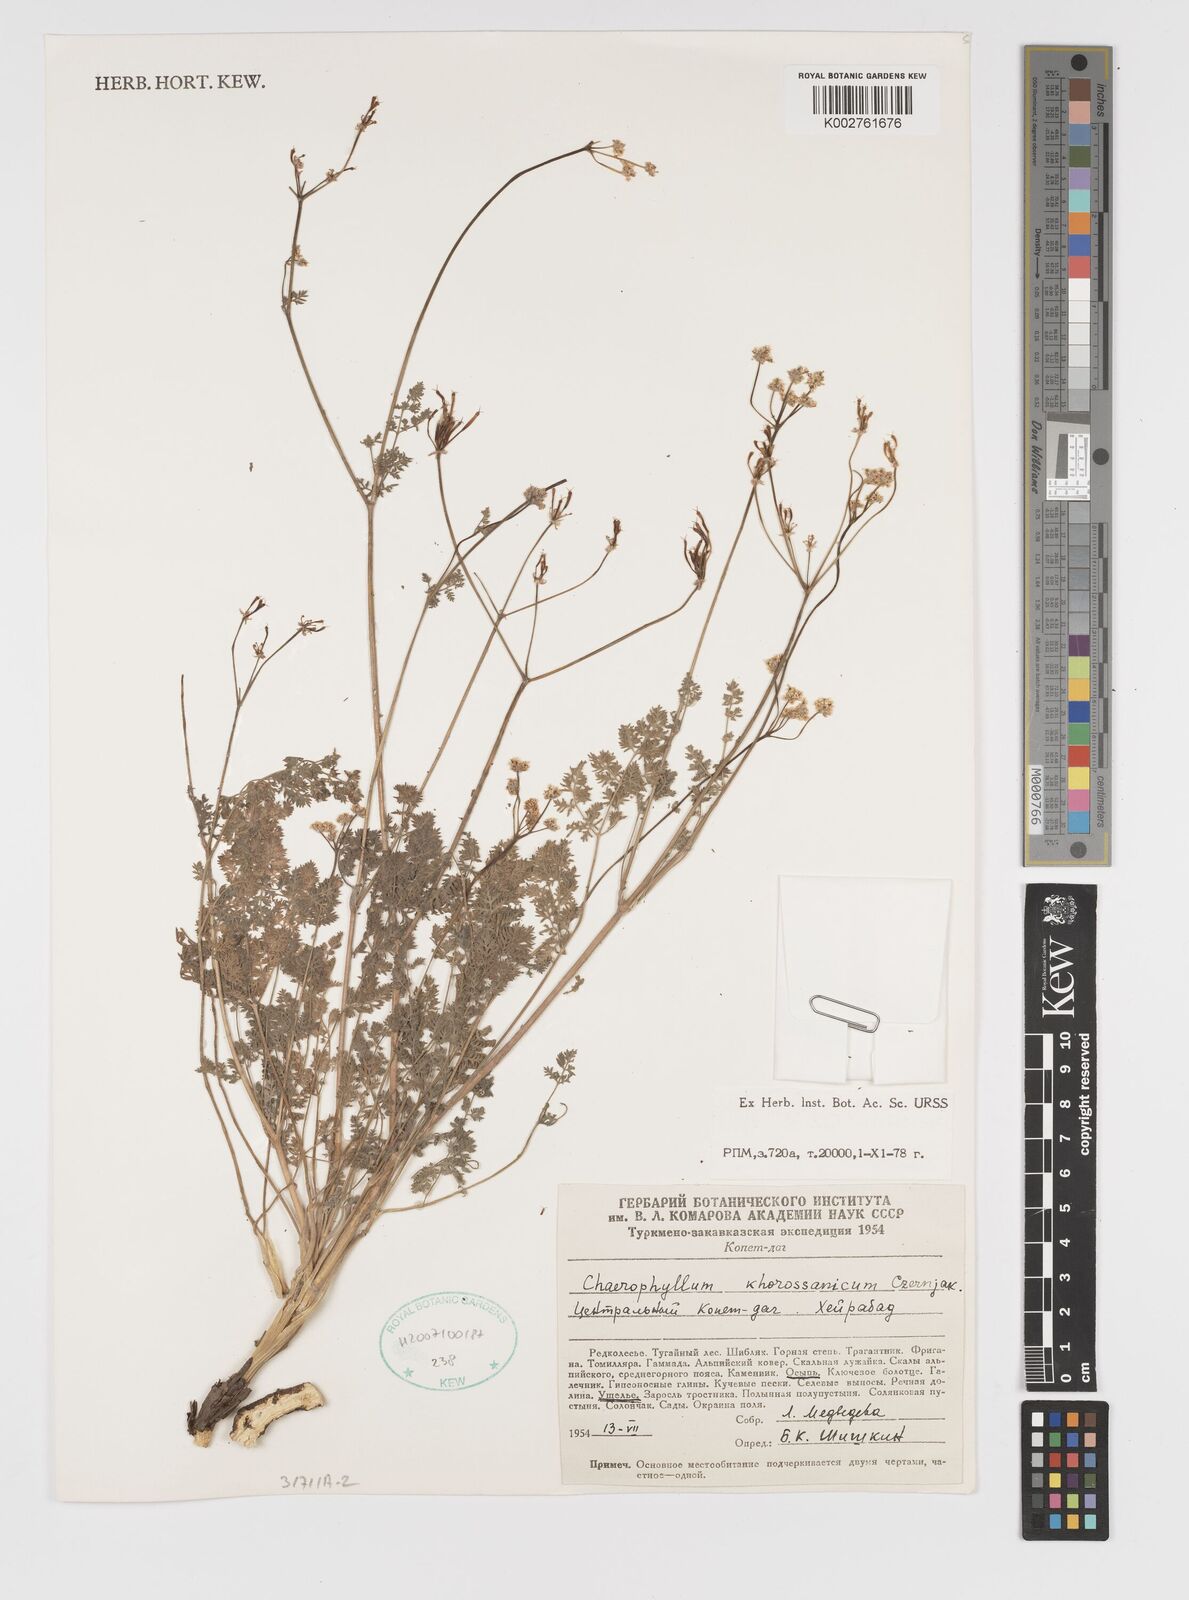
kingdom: Plantae
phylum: Tracheophyta
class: Magnoliopsida
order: Apiales
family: Apiaceae
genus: Chaerophyllum
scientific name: Chaerophyllum khorossanicum
